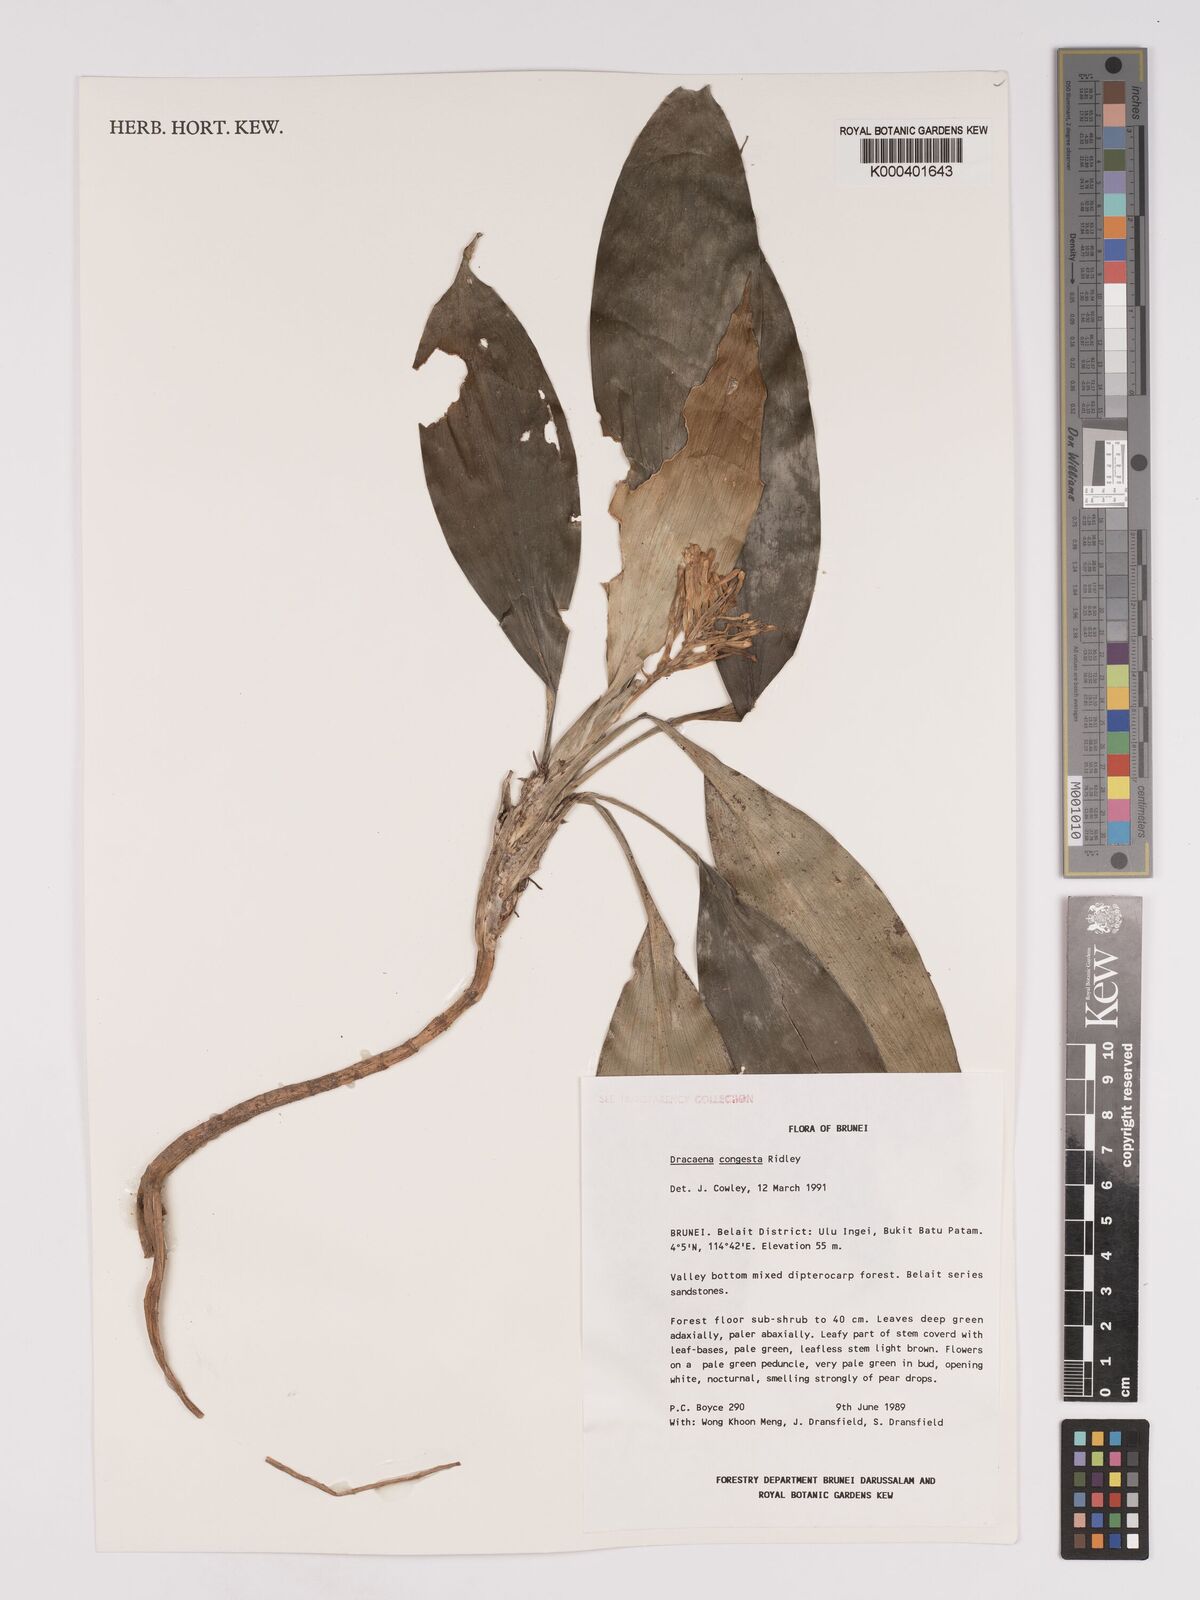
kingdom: Plantae
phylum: Tracheophyta
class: Liliopsida
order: Asparagales
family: Asparagaceae
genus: Dracaena
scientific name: Dracaena chiniana
